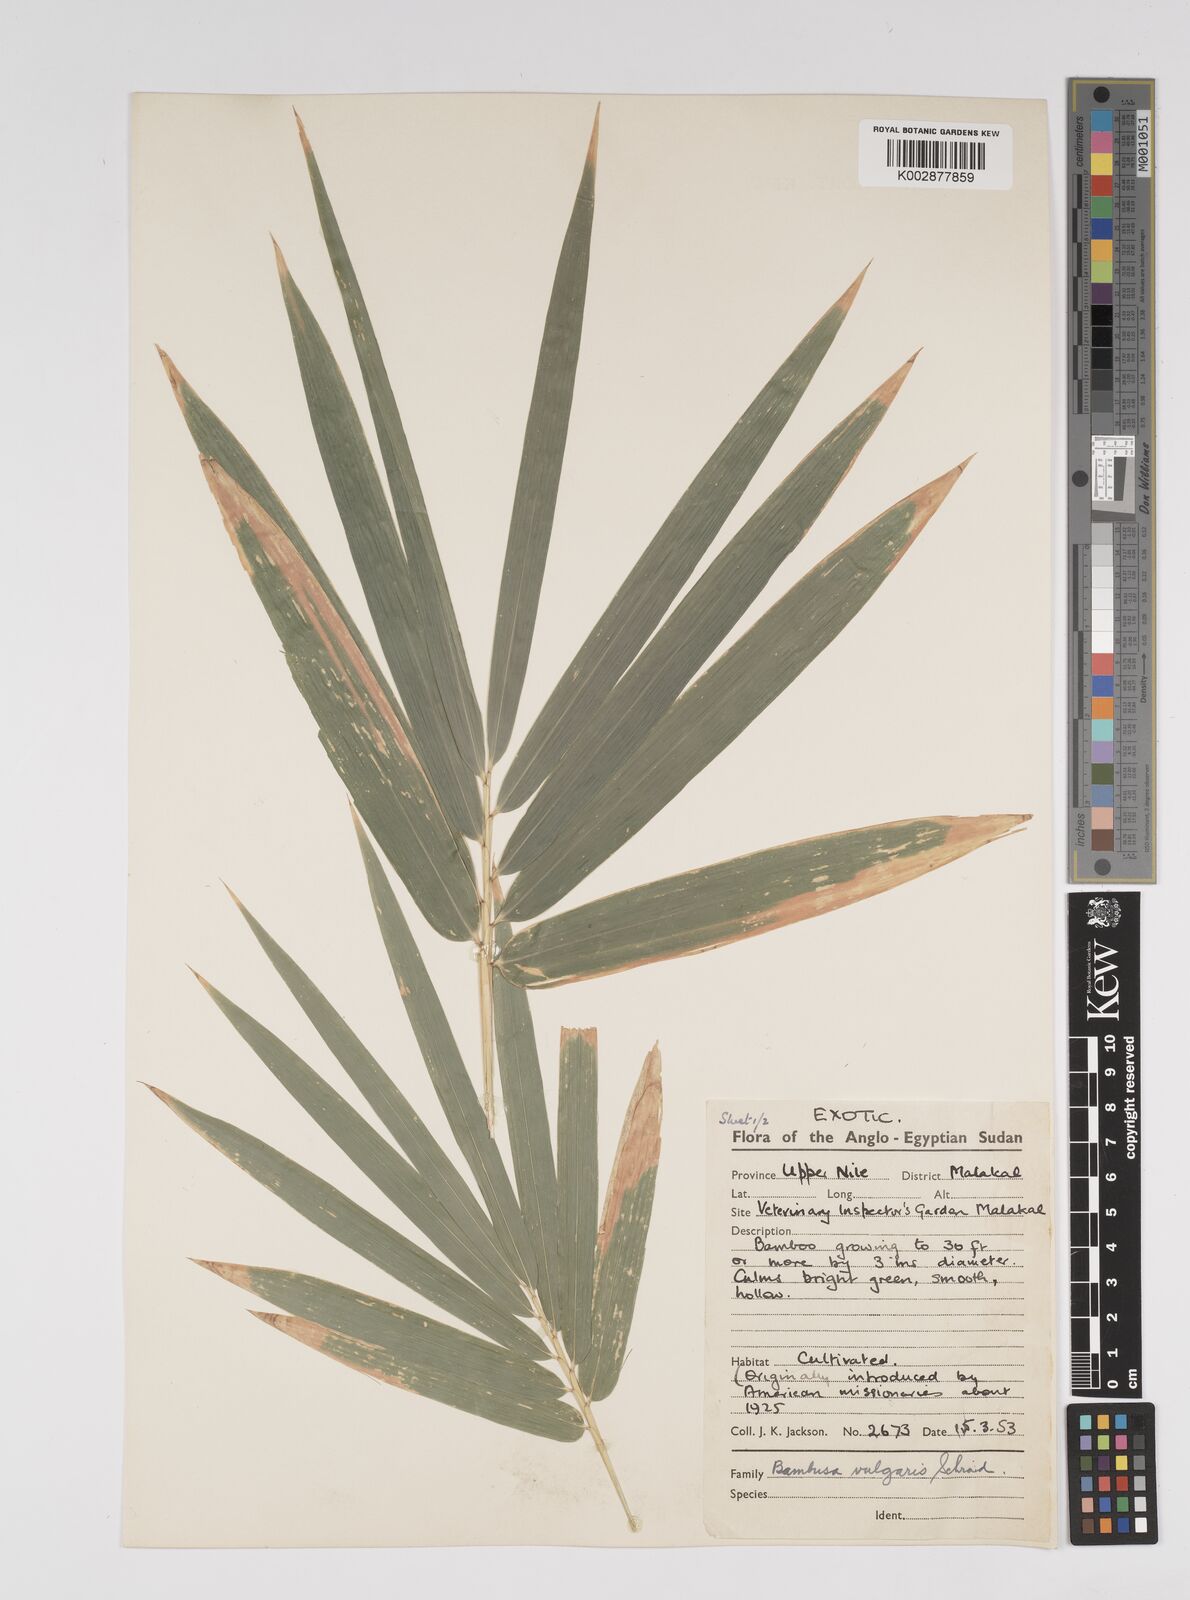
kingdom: Plantae
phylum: Tracheophyta
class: Liliopsida
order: Poales
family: Poaceae
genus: Bambusa
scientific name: Bambusa vulgaris
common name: Common bamboo
